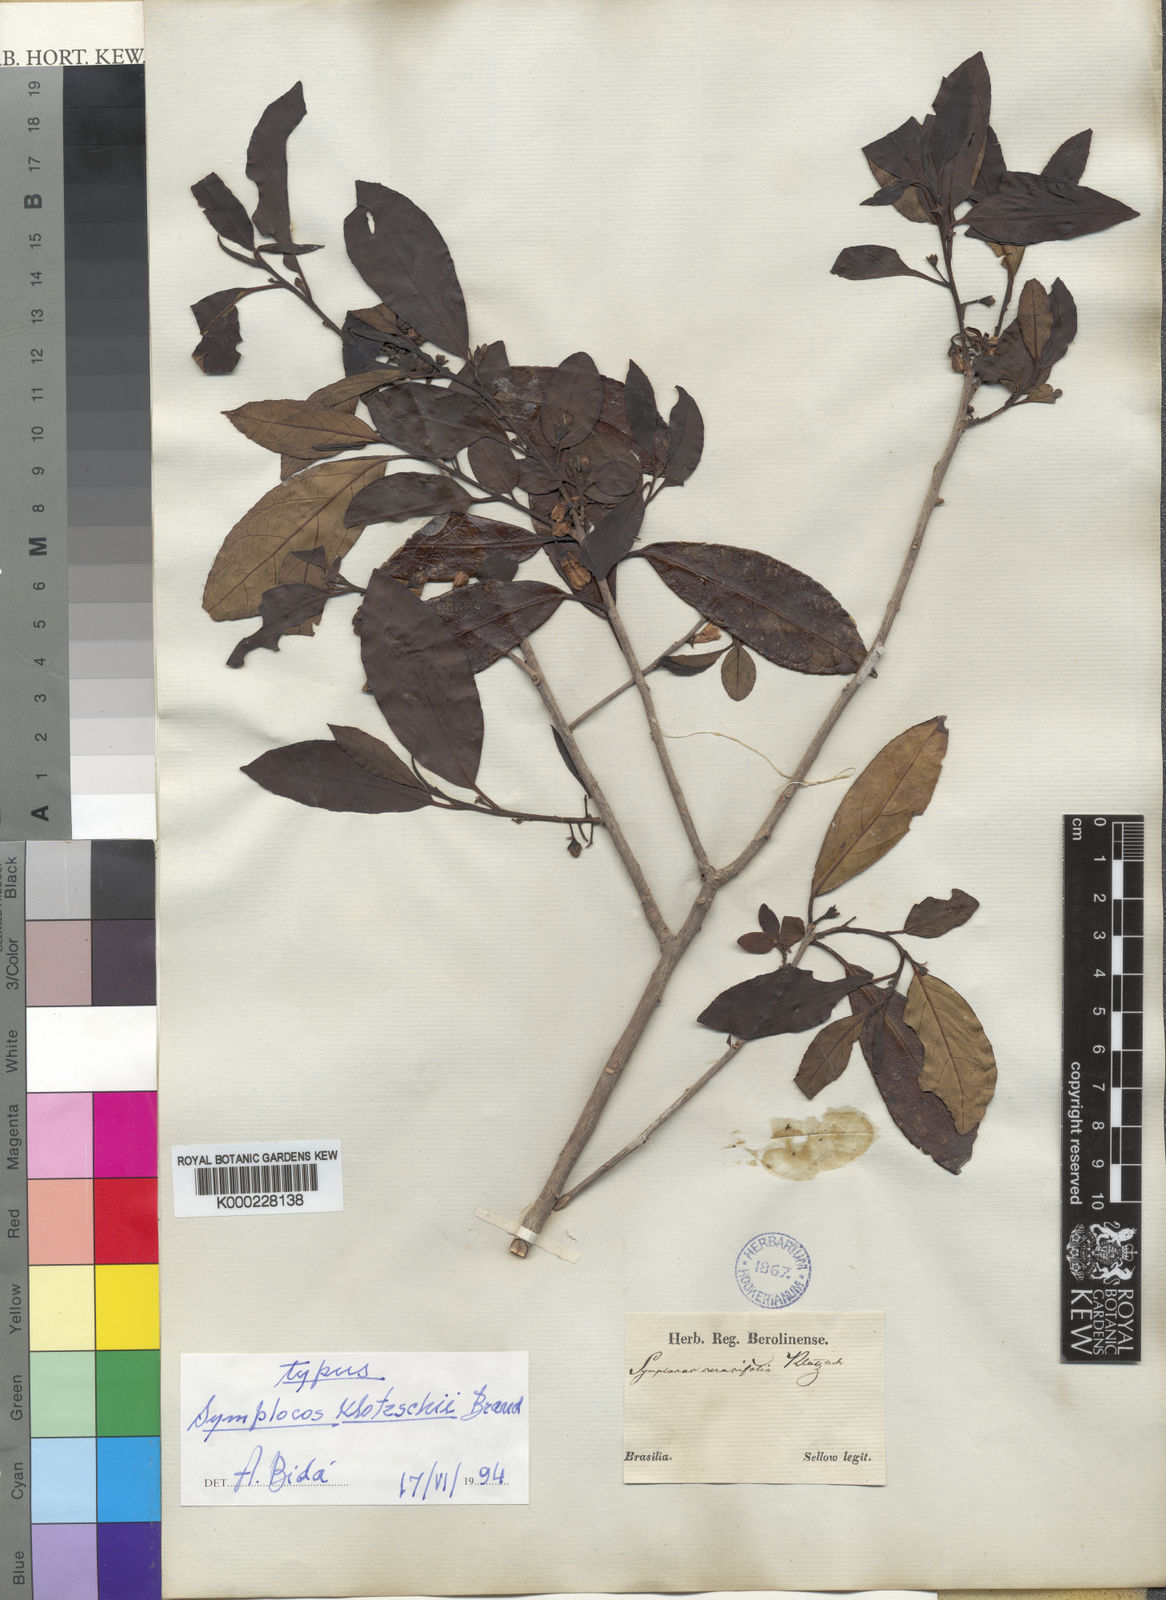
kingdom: Plantae
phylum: Tracheophyta
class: Magnoliopsida
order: Ericales
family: Symplocaceae
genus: Symplocos
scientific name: Symplocos uniflora
